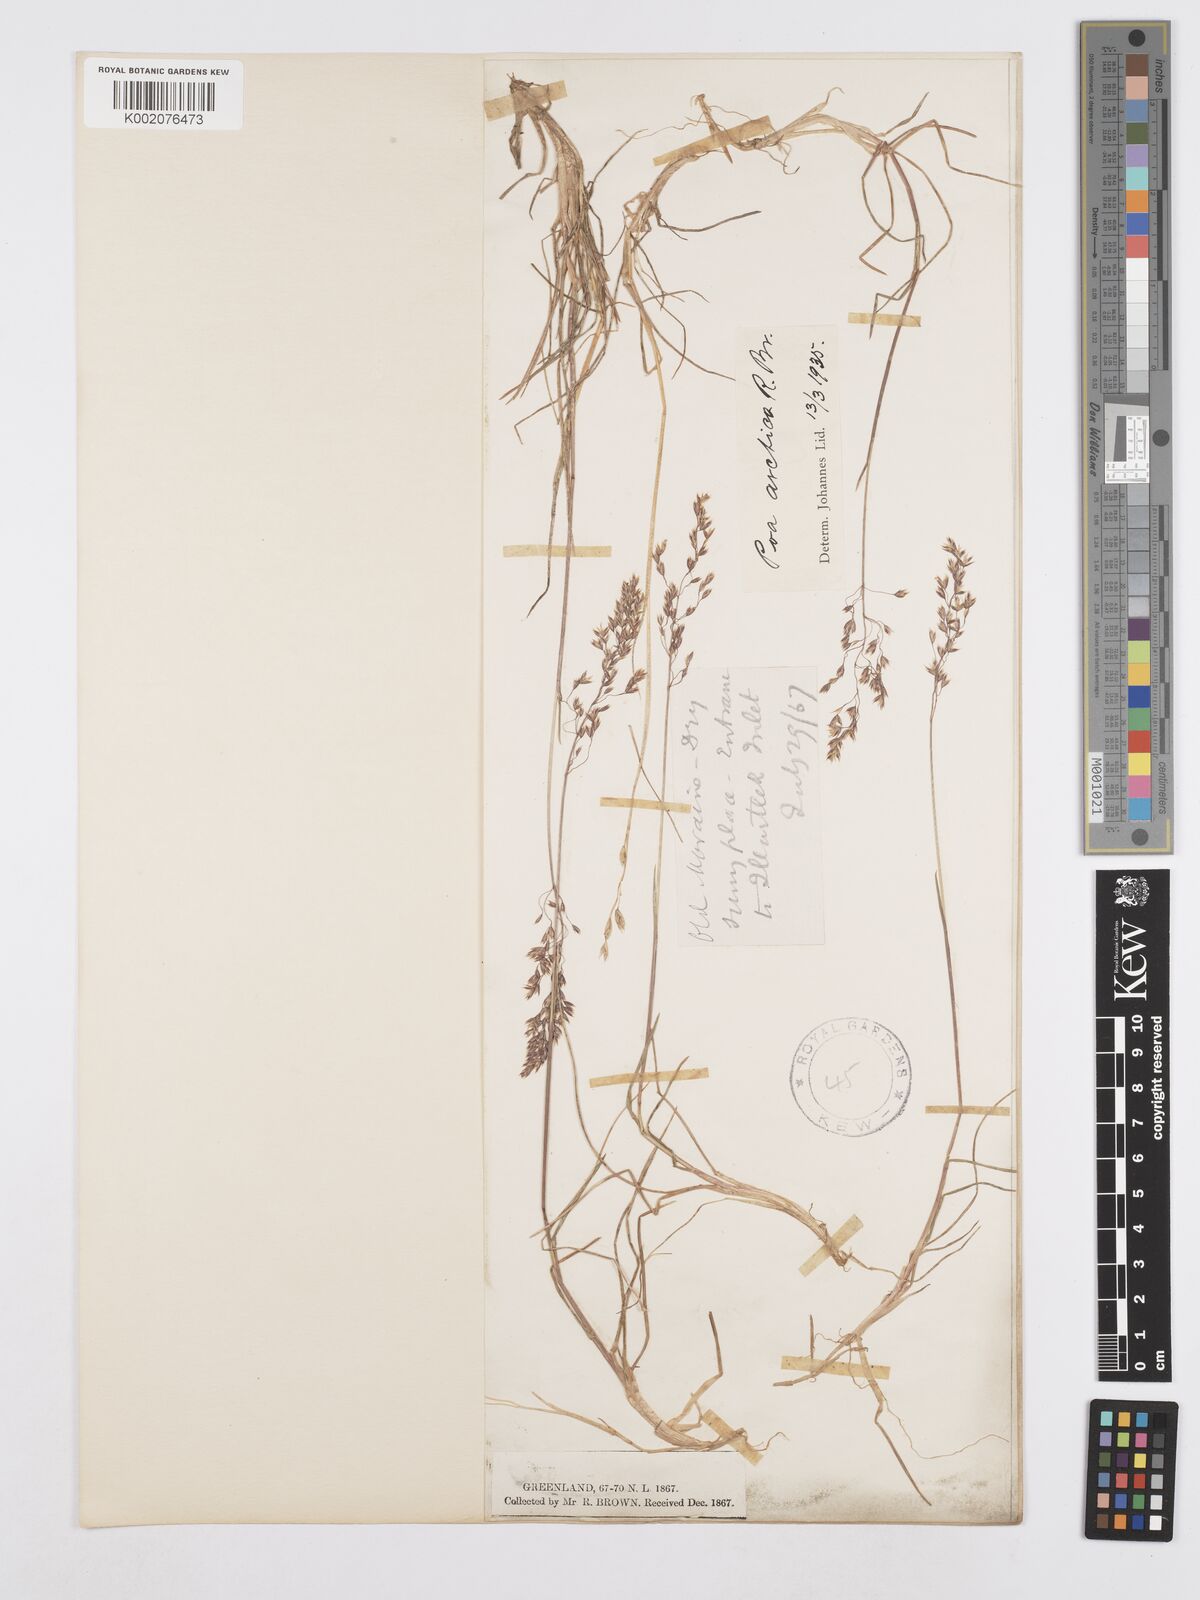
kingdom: Plantae
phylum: Tracheophyta
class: Liliopsida
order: Poales
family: Poaceae
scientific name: Poaceae
